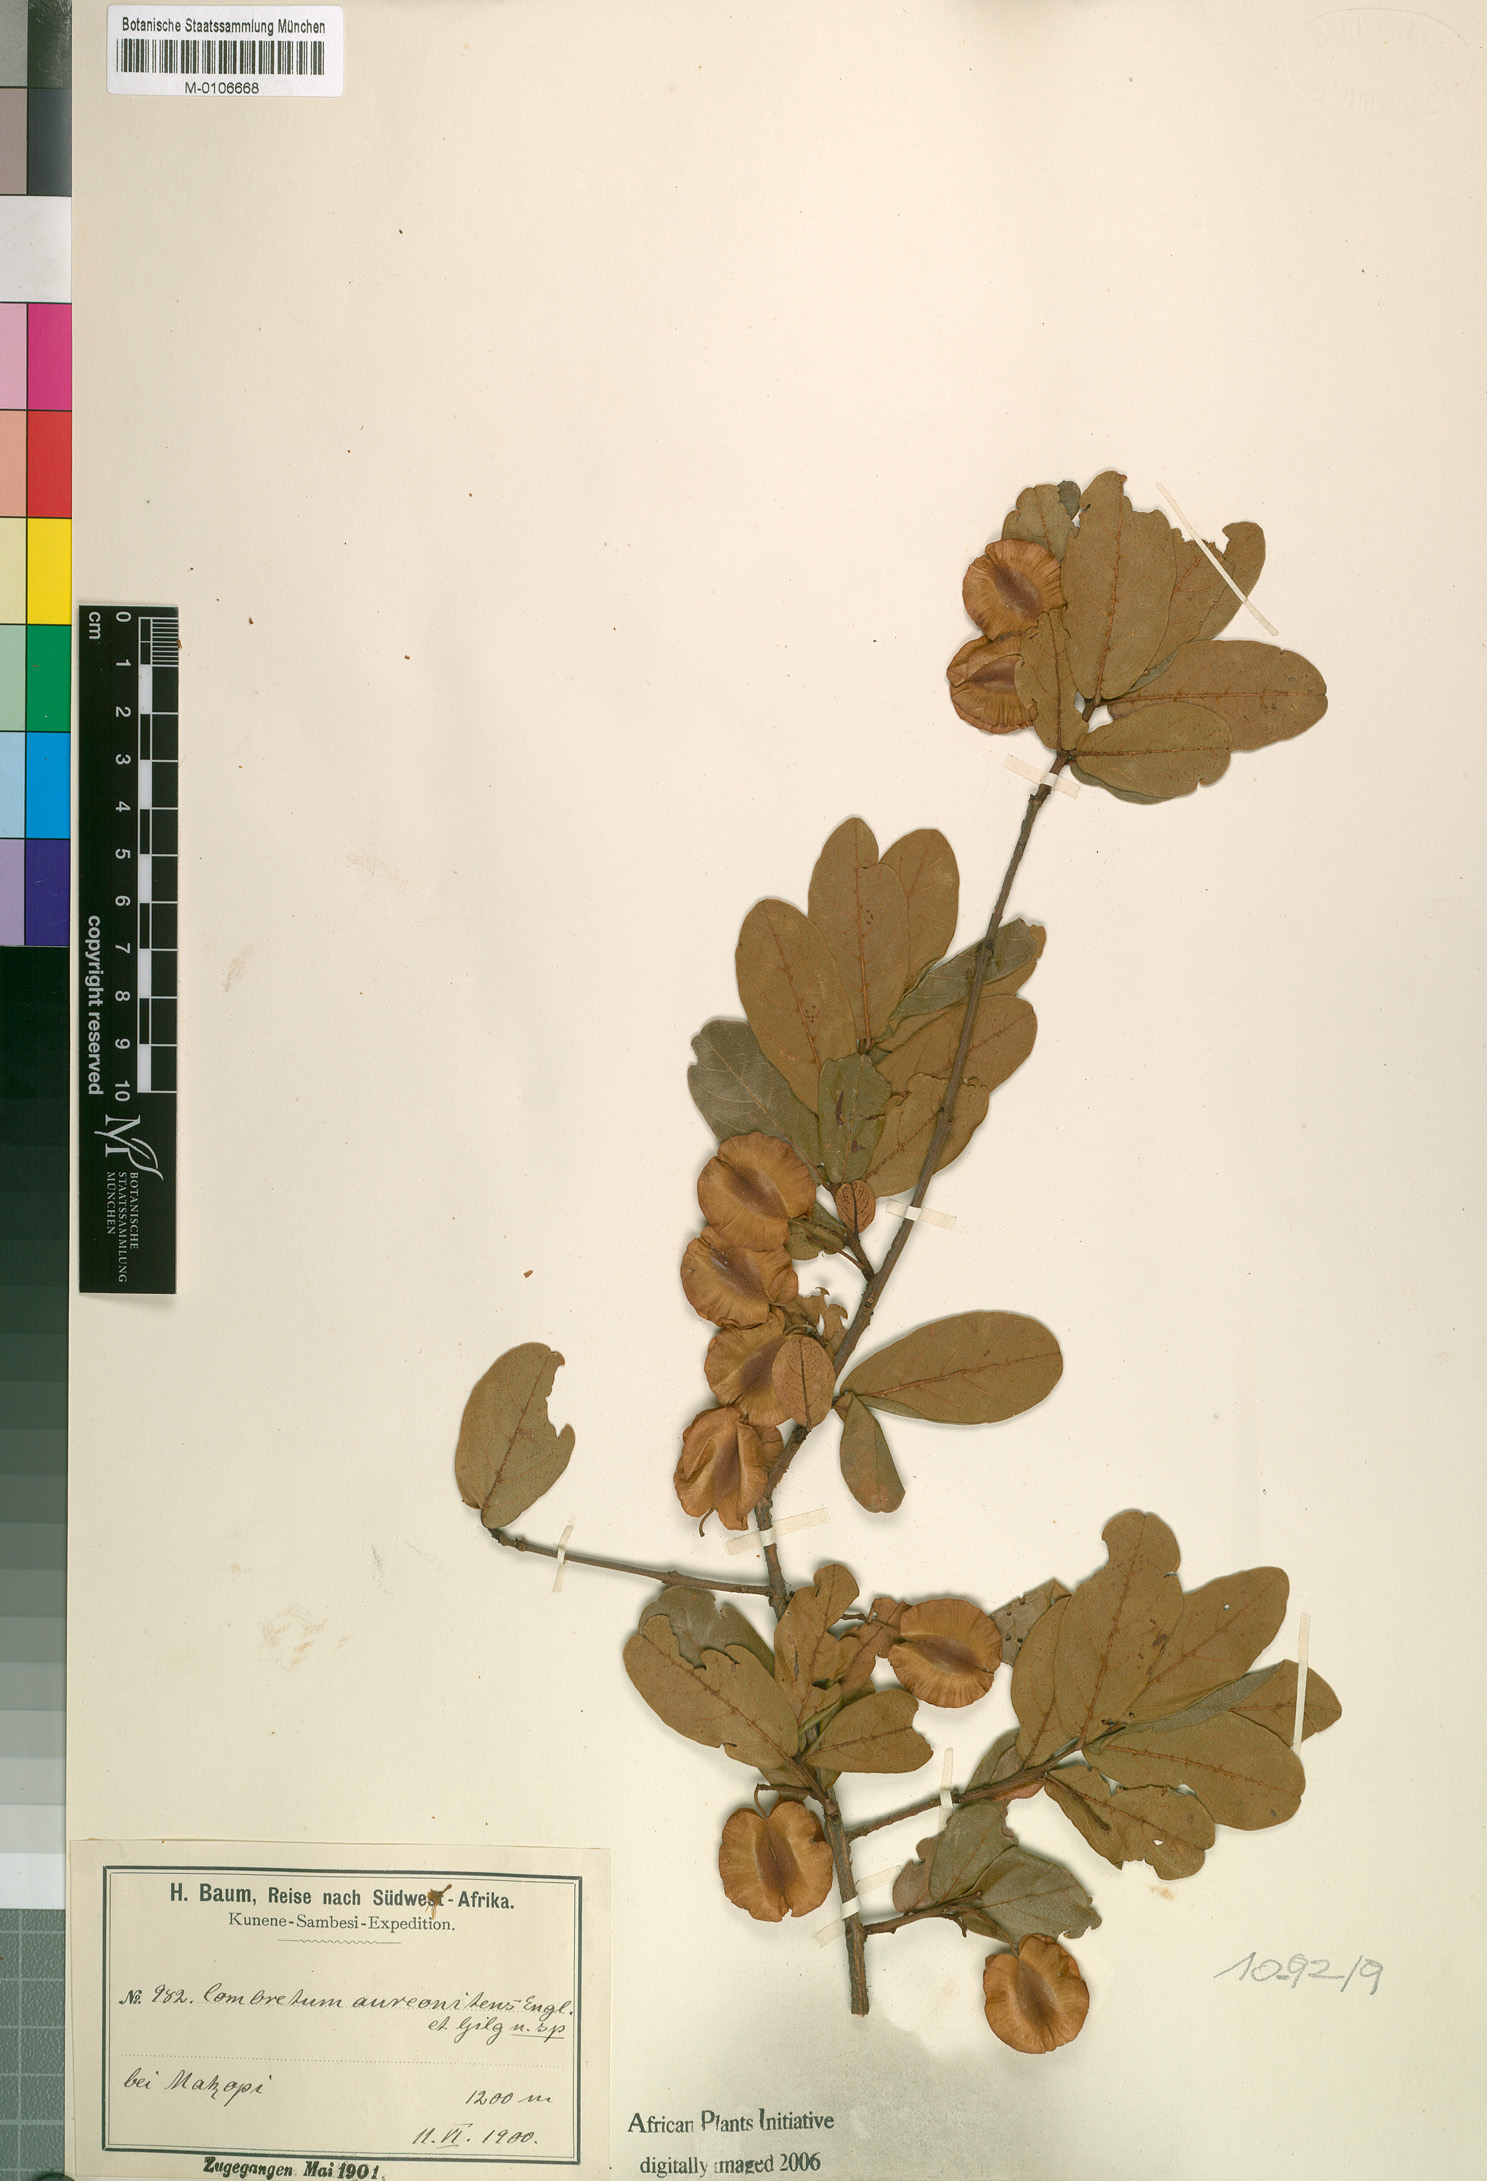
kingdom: Plantae
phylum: Tracheophyta
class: Magnoliopsida
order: Myrtales
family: Combretaceae
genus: Combretum
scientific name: Combretum aureonitens
